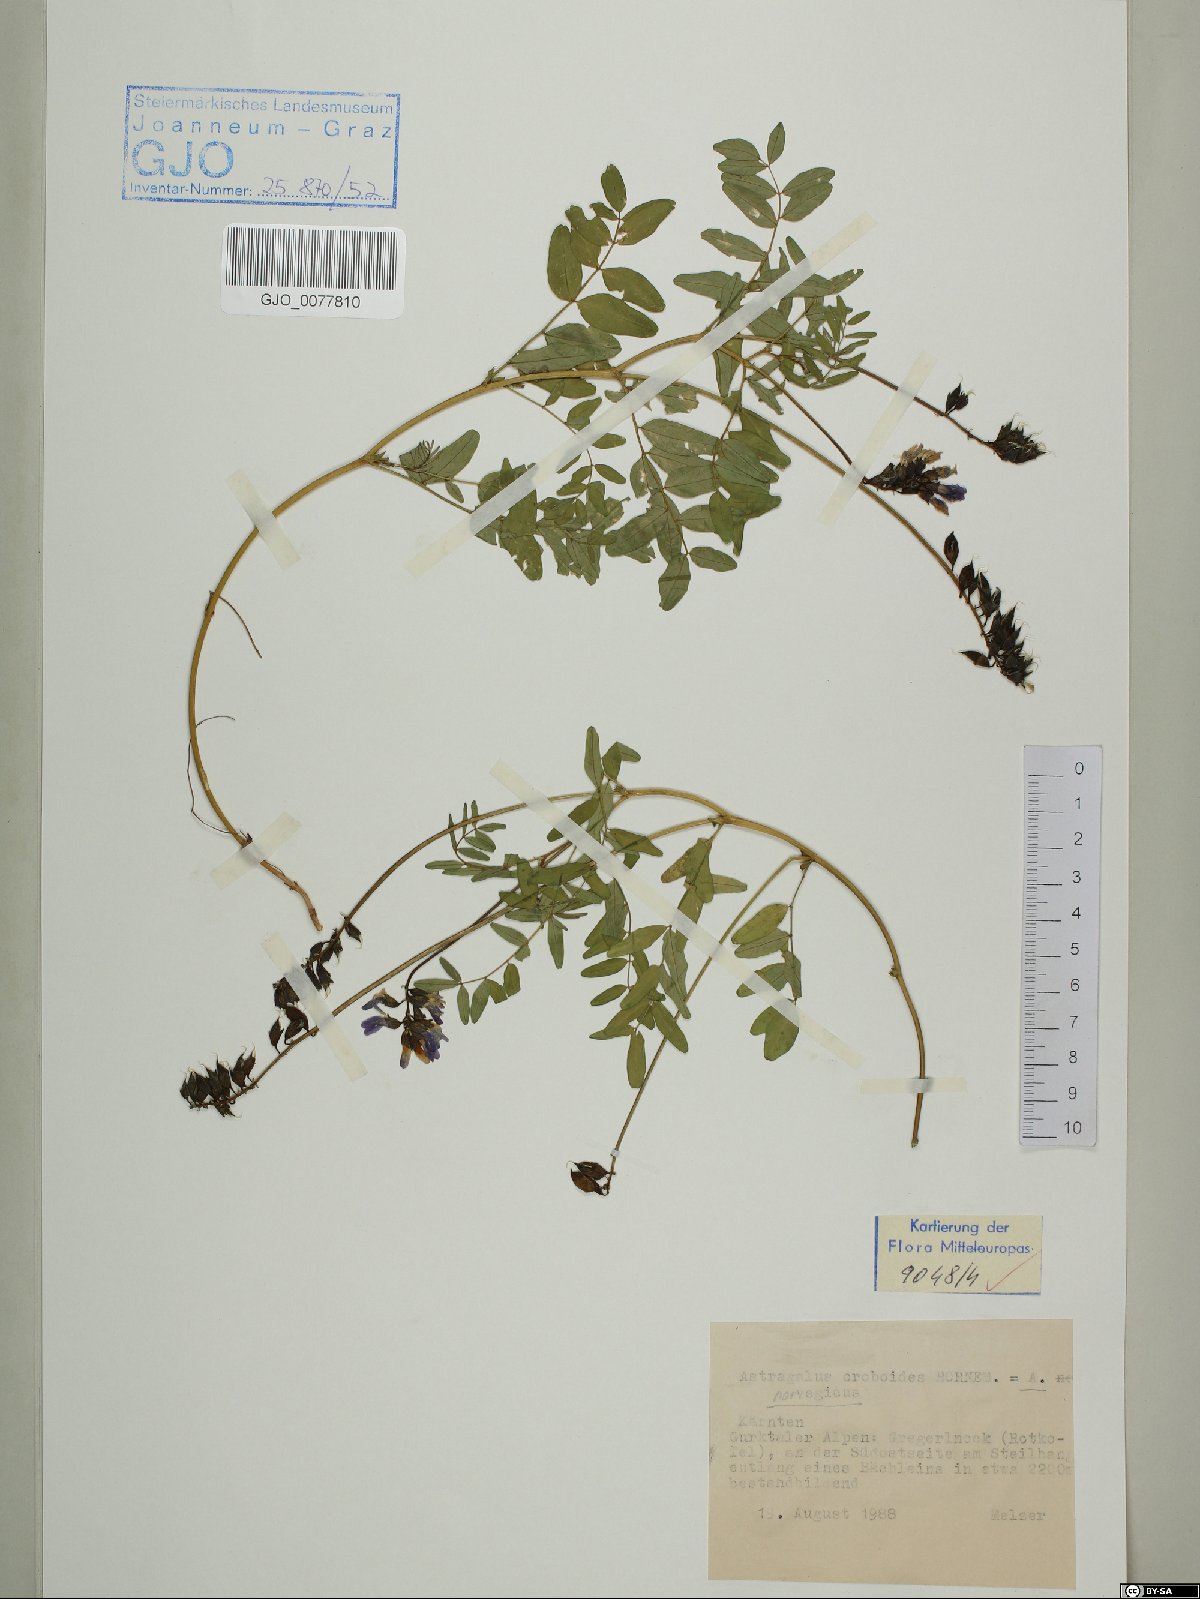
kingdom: Plantae
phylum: Tracheophyta
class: Magnoliopsida
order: Fabales
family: Fabaceae
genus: Astragalus
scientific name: Astragalus norvegicus
